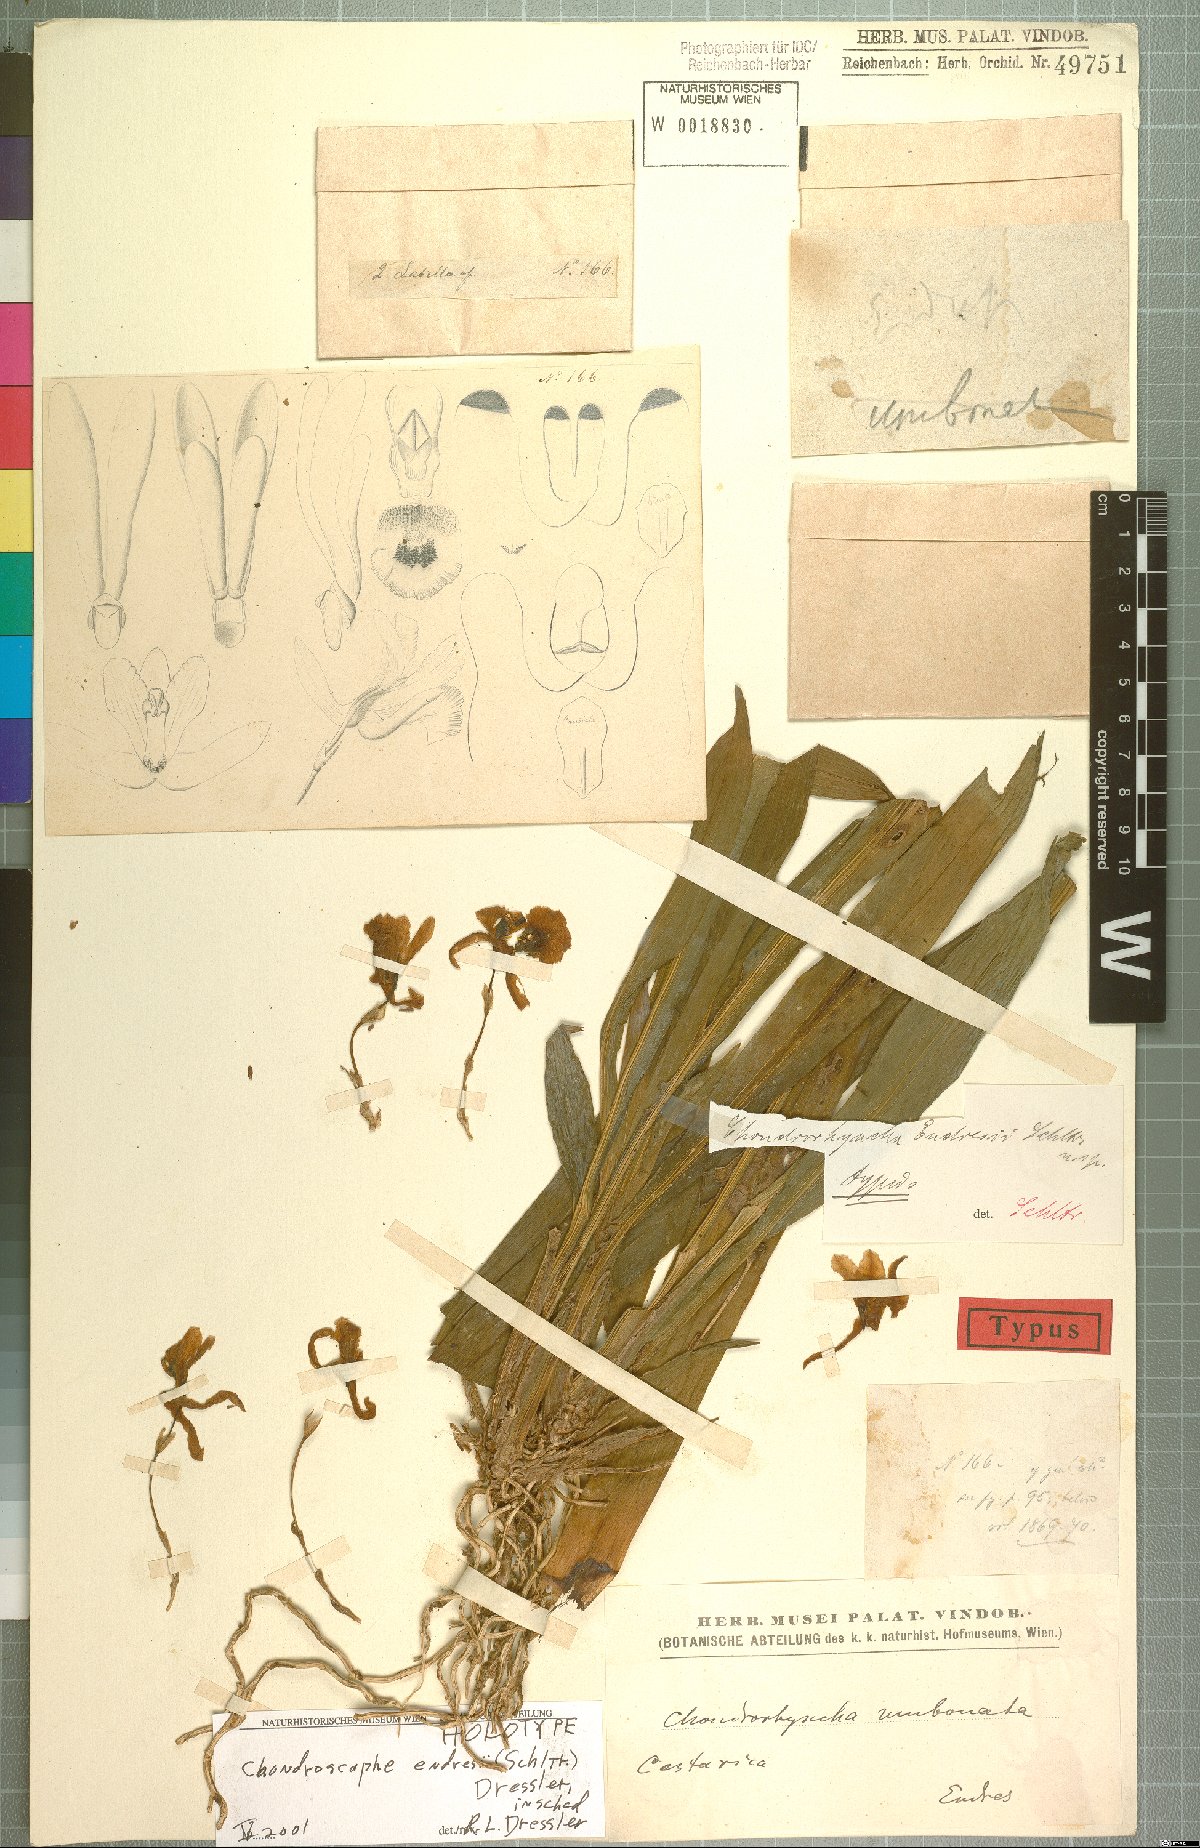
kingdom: Plantae
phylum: Tracheophyta
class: Liliopsida
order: Asparagales
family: Orchidaceae
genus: Chondroscaphe
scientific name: Chondroscaphe bicolor
